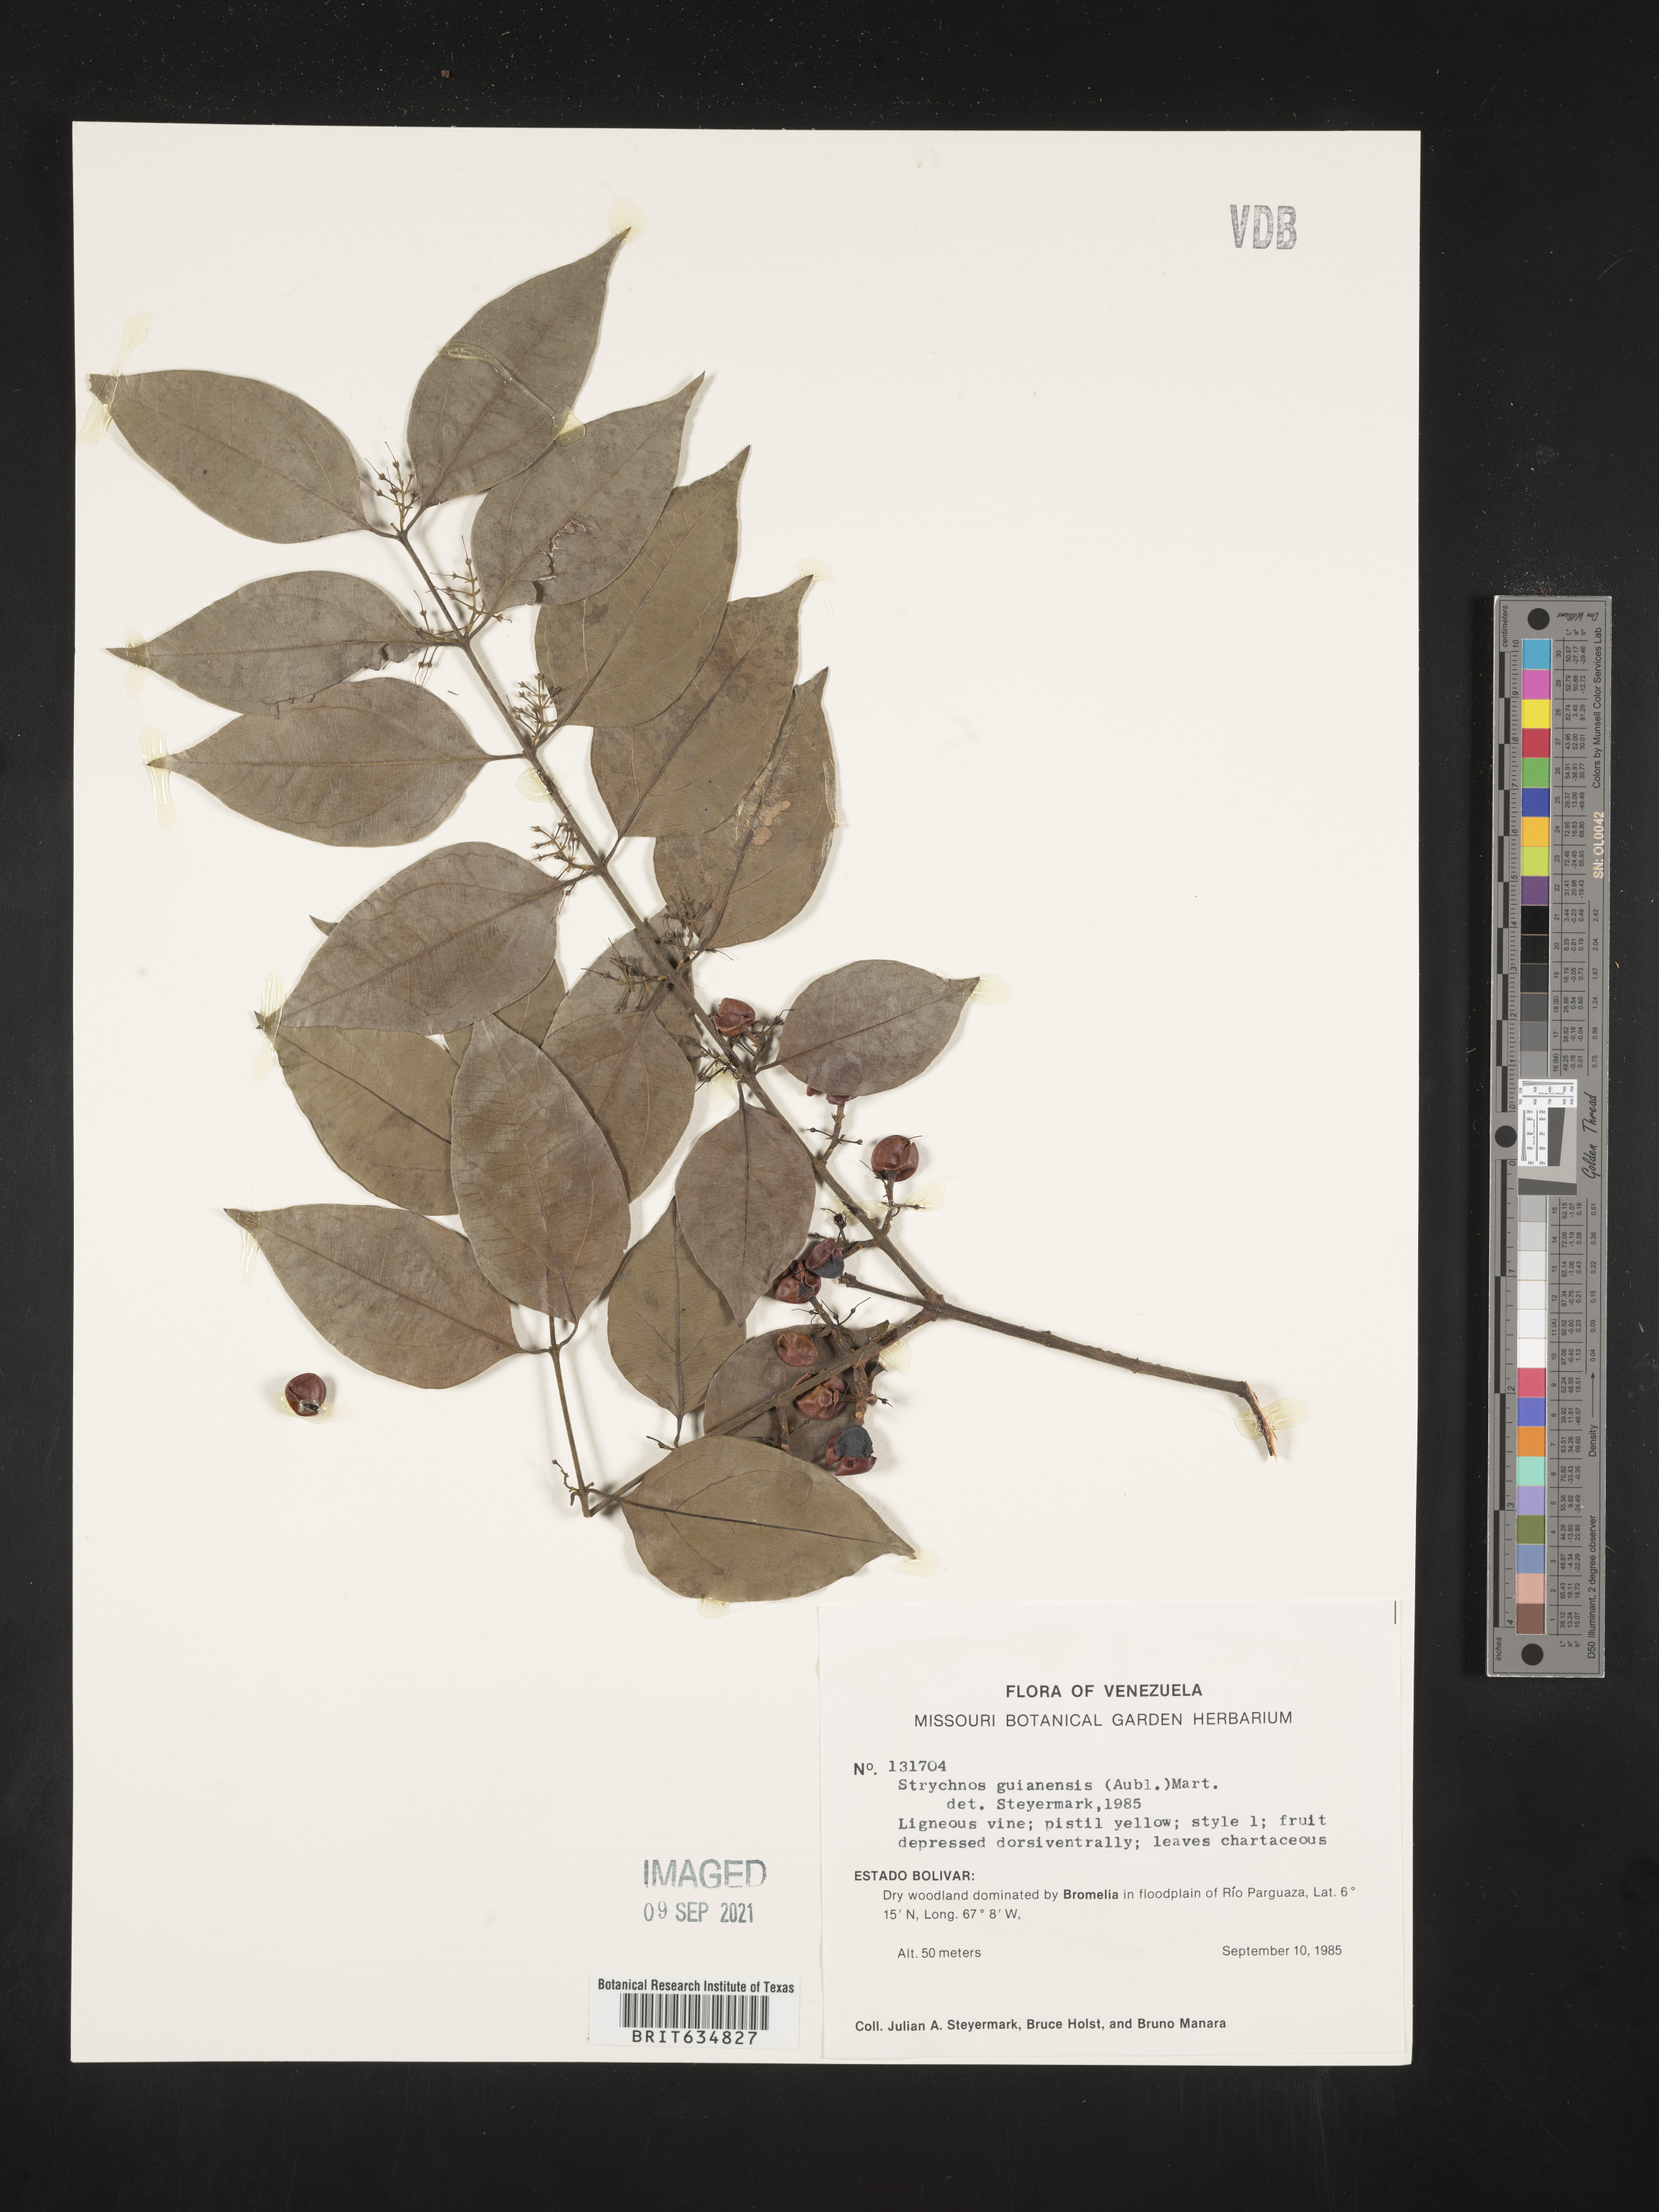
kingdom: Plantae
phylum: Tracheophyta
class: Magnoliopsida
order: Gentianales
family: Loganiaceae
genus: Strychnos
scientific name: Strychnos
